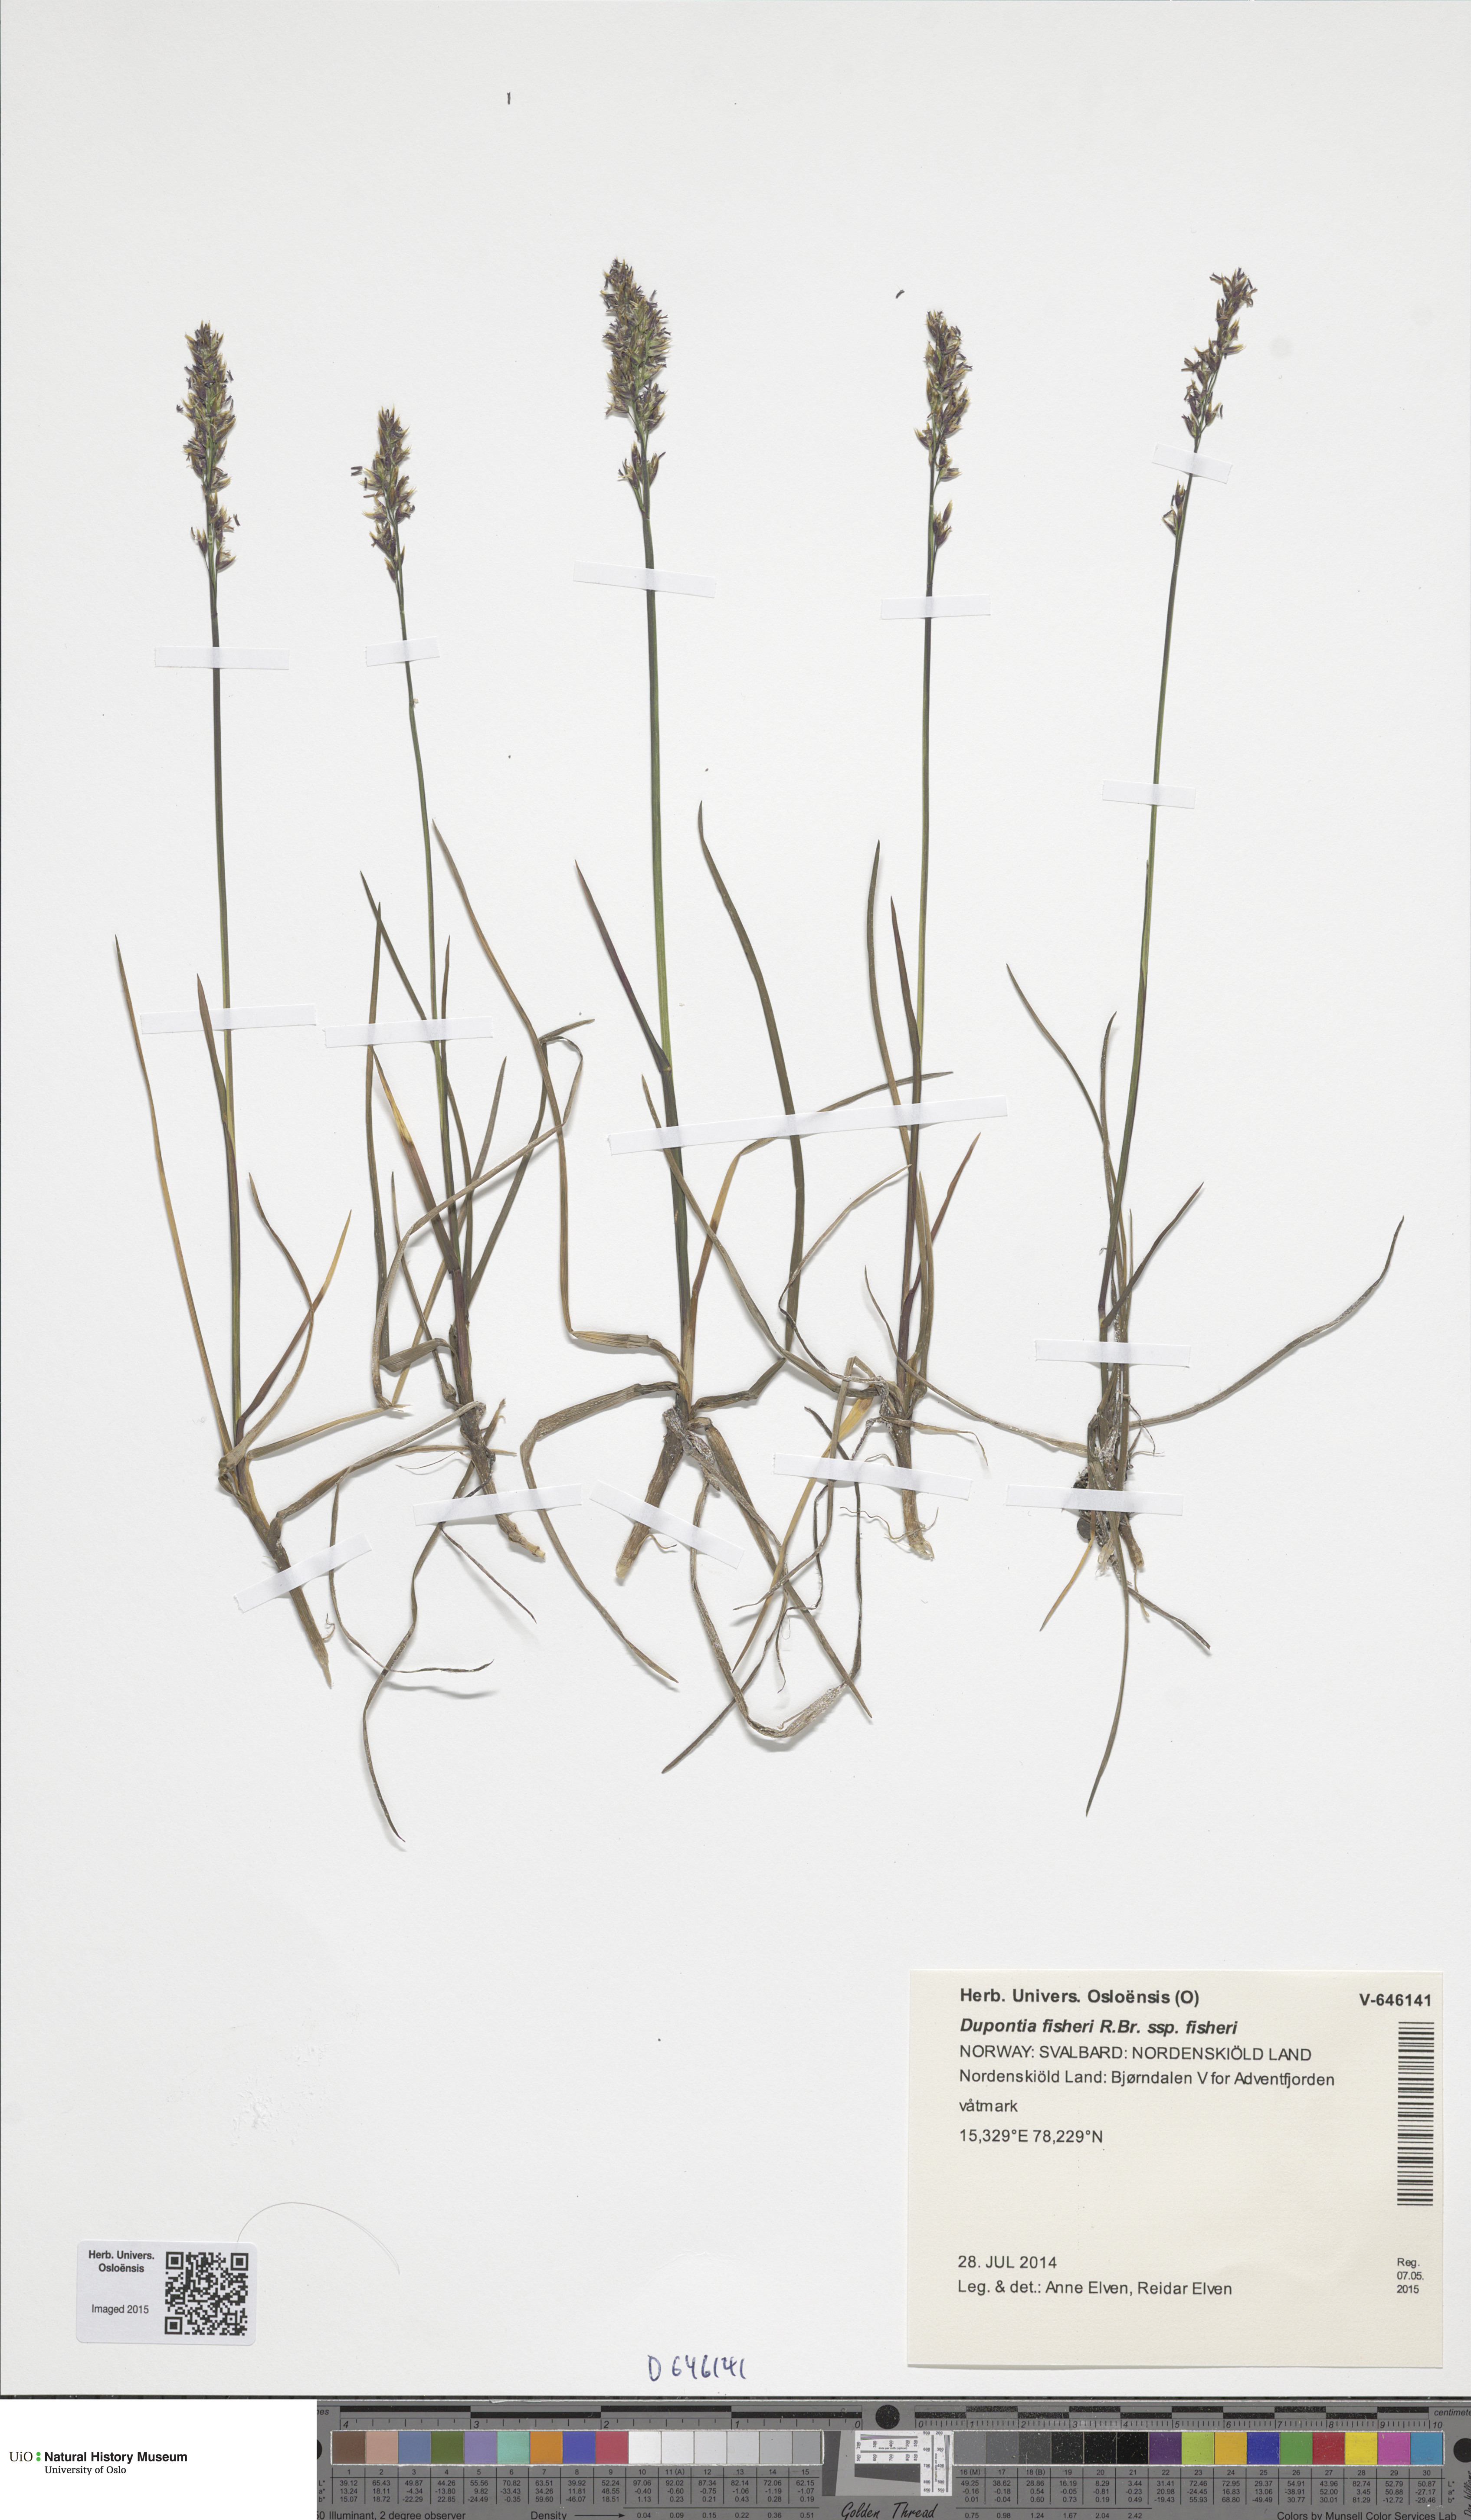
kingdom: Plantae
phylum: Tracheophyta
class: Liliopsida
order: Poales
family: Poaceae
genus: Dupontia
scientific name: Dupontia fisheri
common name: Tundra grass
